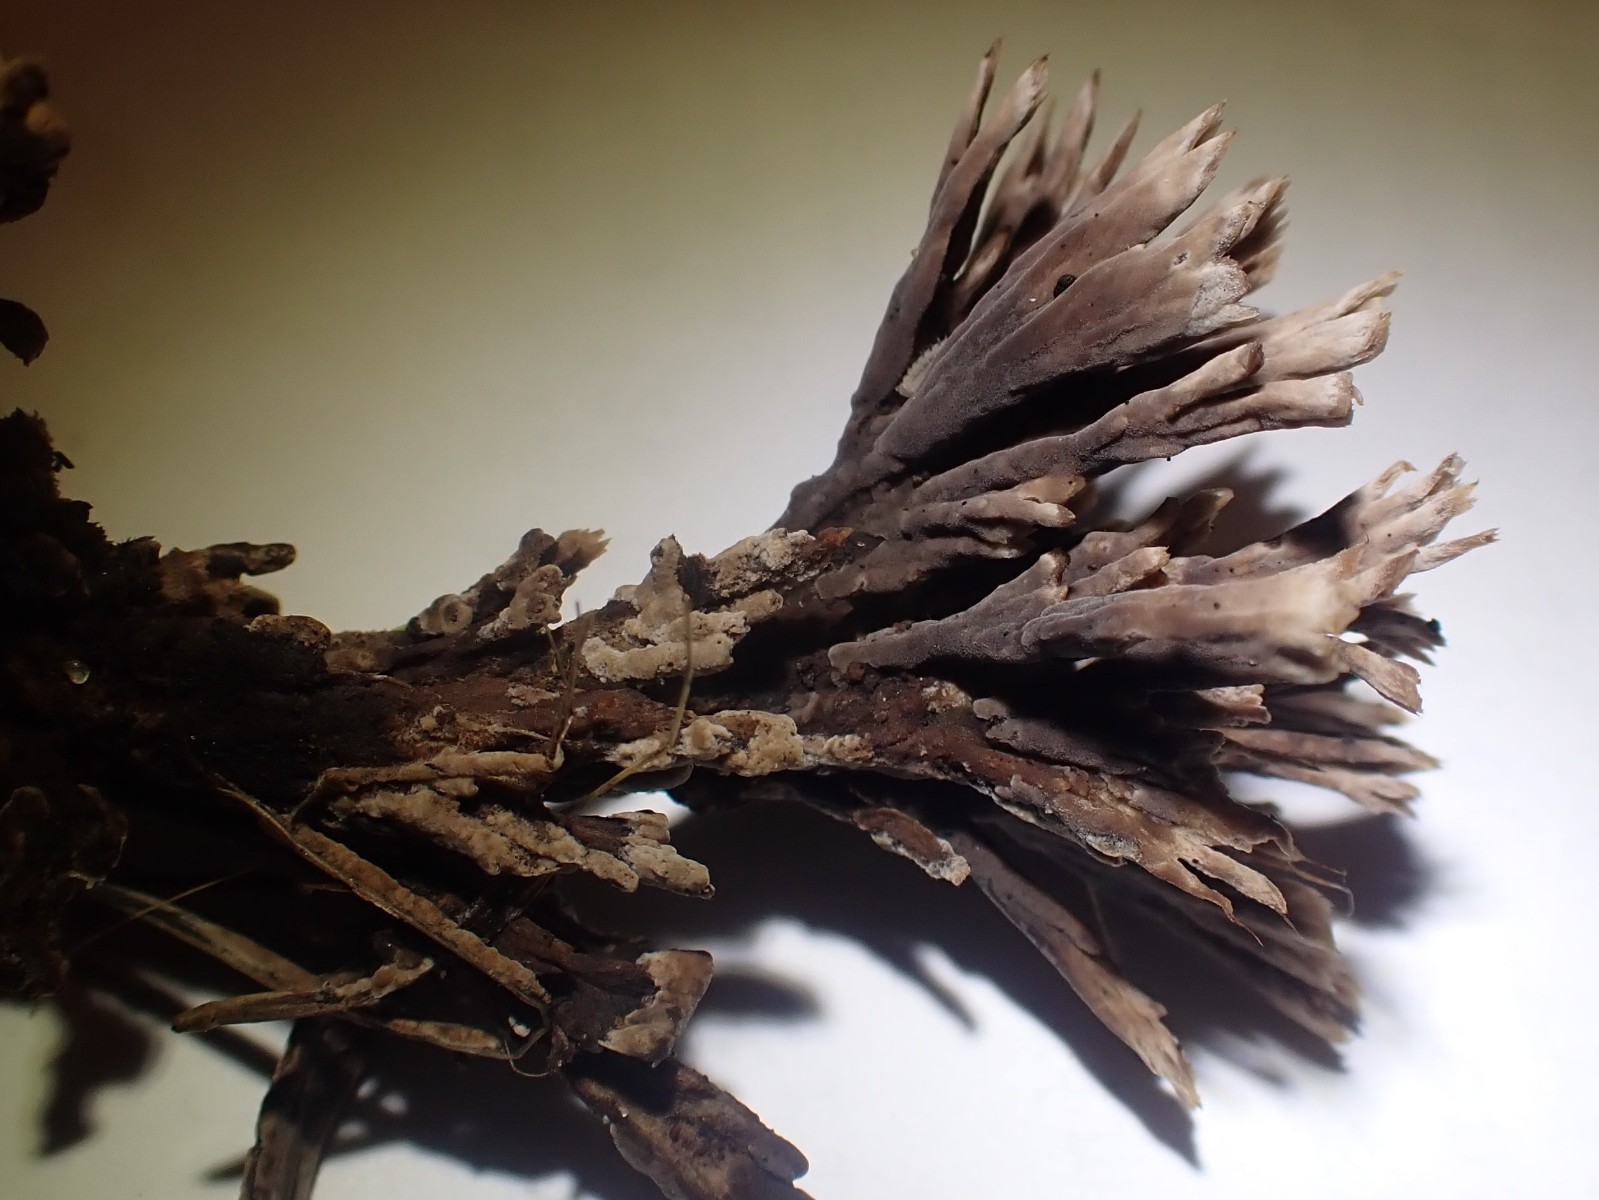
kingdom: Fungi
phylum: Basidiomycota
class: Agaricomycetes
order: Thelephorales
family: Thelephoraceae
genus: Thelephora
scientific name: Thelephora anthocephala
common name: busk-frynsesvamp
